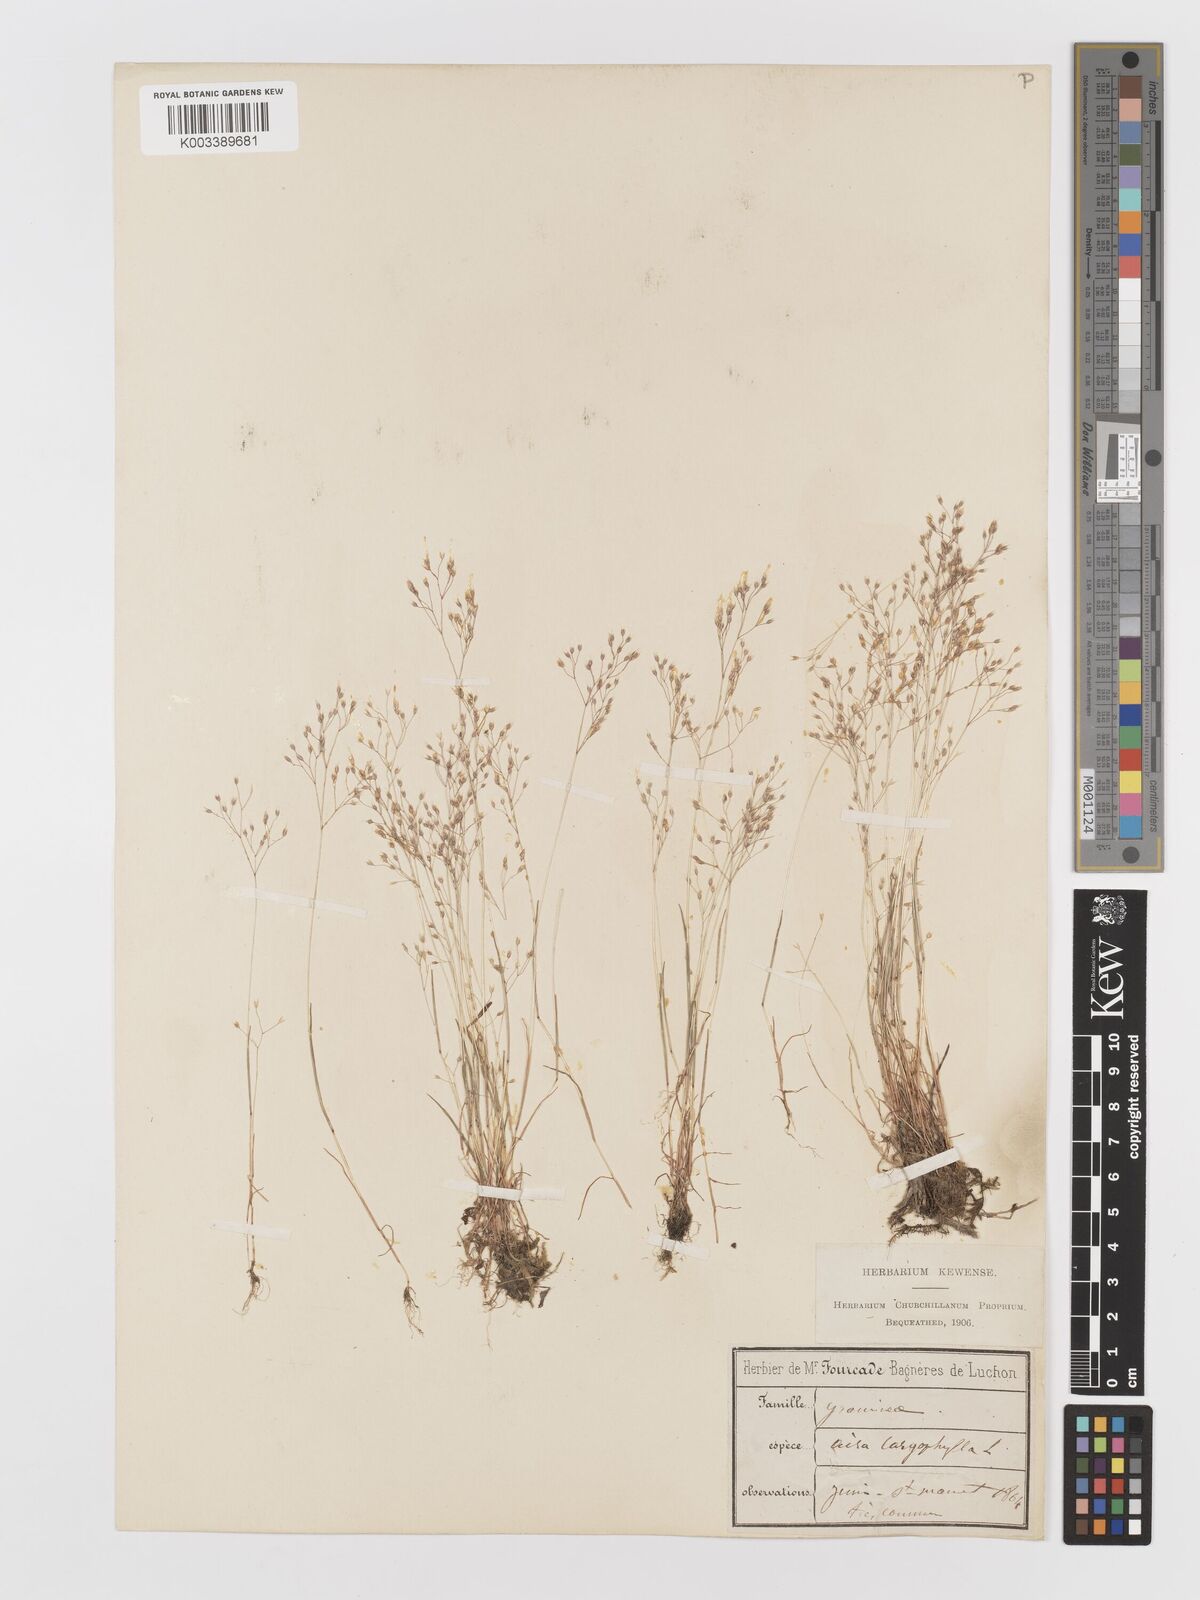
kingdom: Plantae
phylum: Tracheophyta
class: Liliopsida
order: Poales
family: Poaceae
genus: Aira
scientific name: Aira caryophyllea
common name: Silver hairgrass
